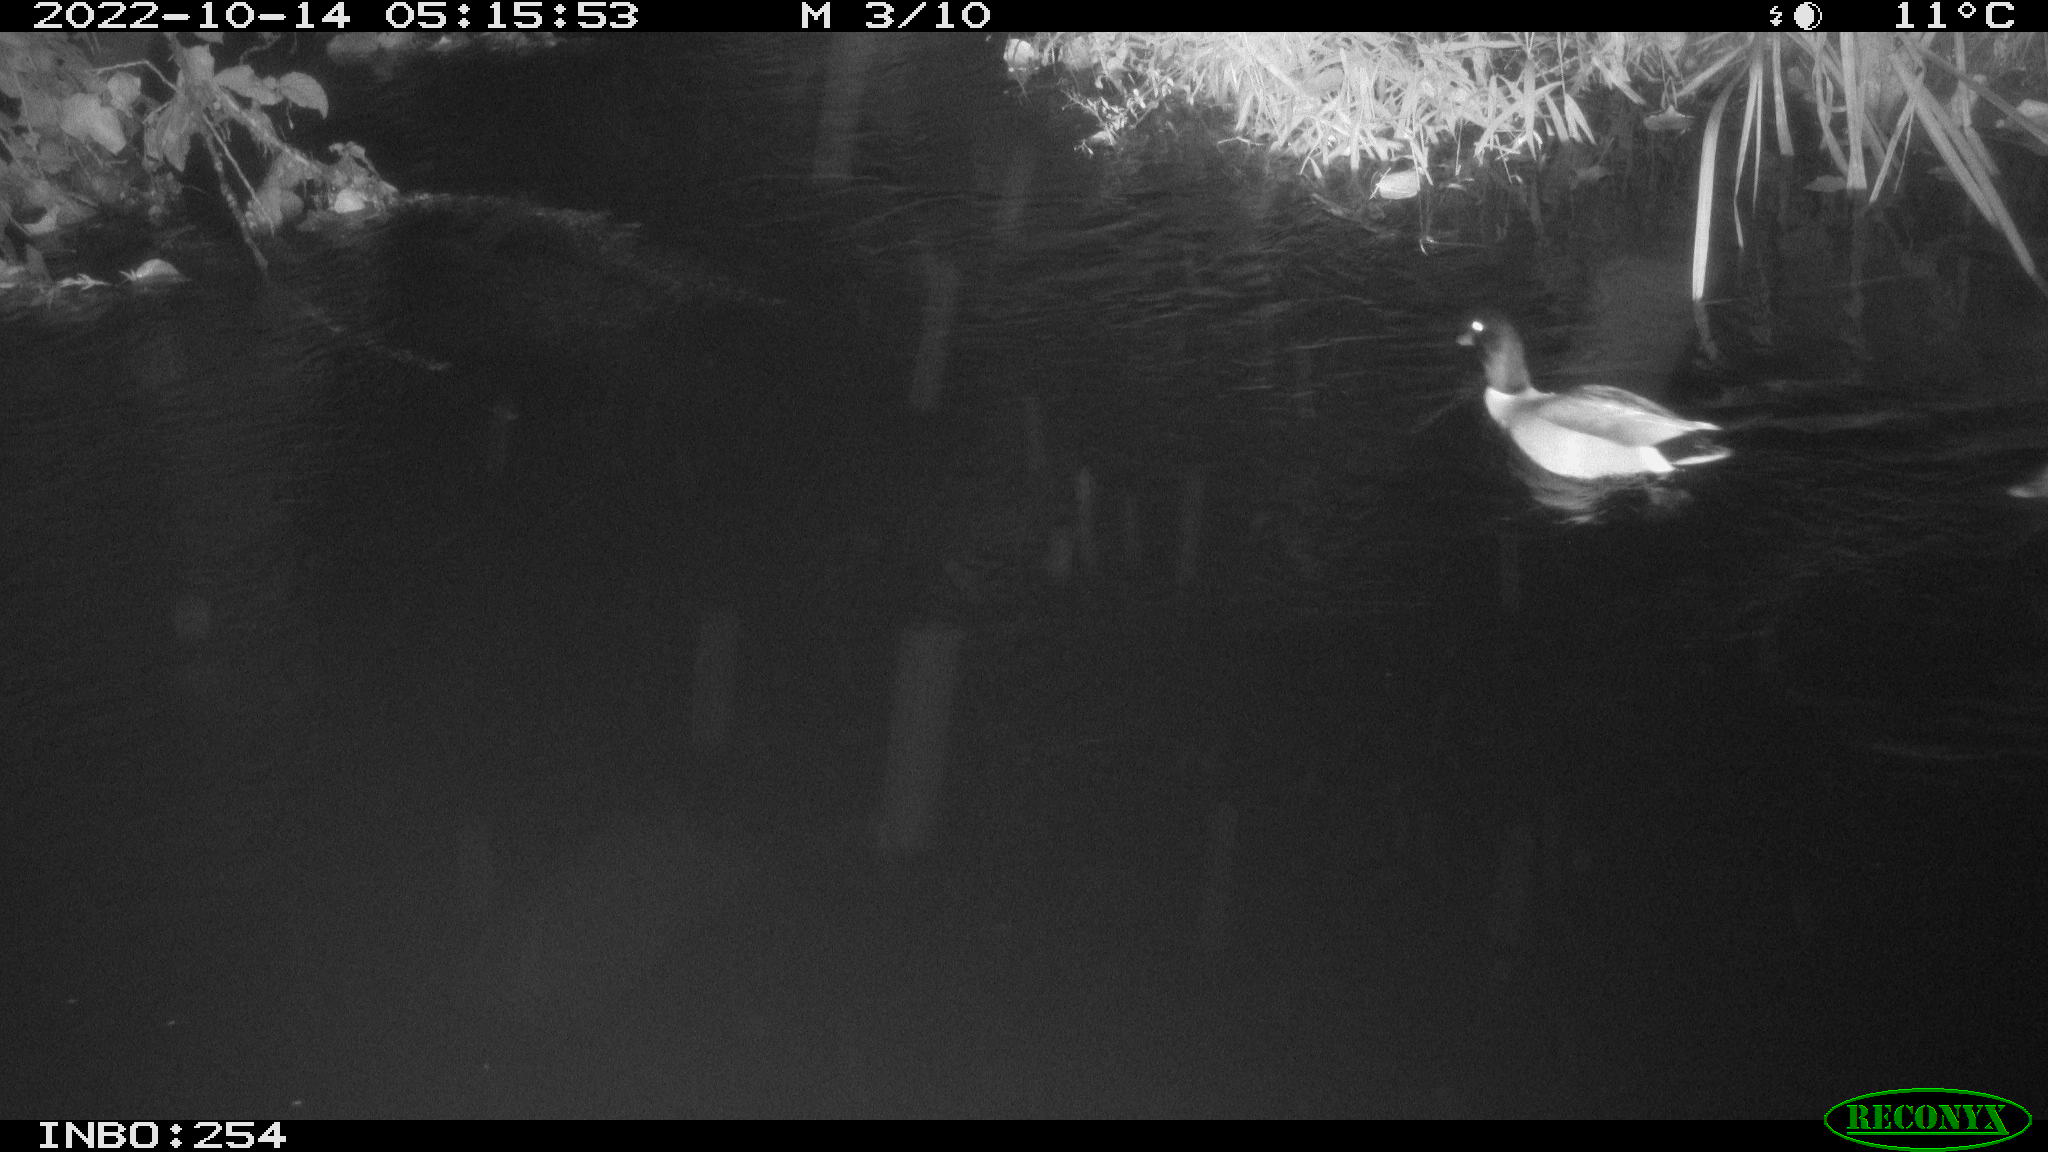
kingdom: Animalia
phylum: Chordata
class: Aves
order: Anseriformes
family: Anatidae
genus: Anas
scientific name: Anas
